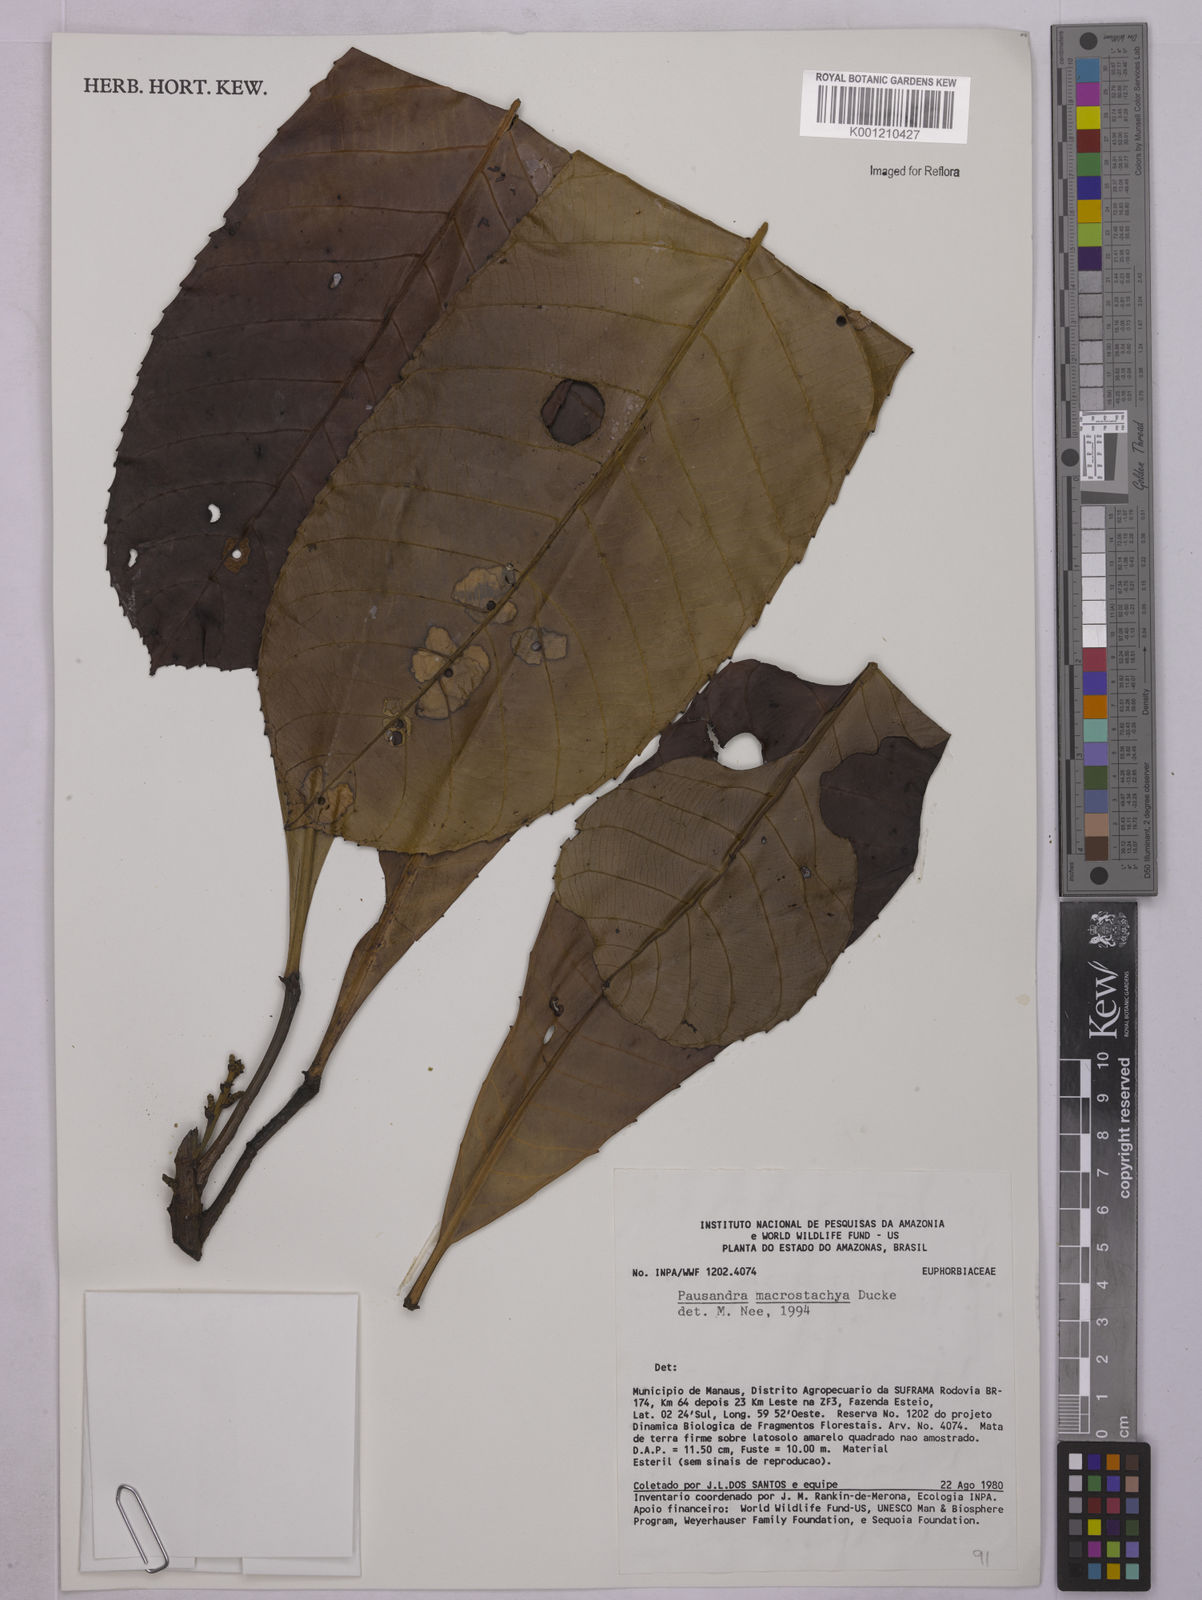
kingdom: Plantae
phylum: Tracheophyta
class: Magnoliopsida
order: Malpighiales
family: Euphorbiaceae
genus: Pausandra
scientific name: Pausandra macrostachya
